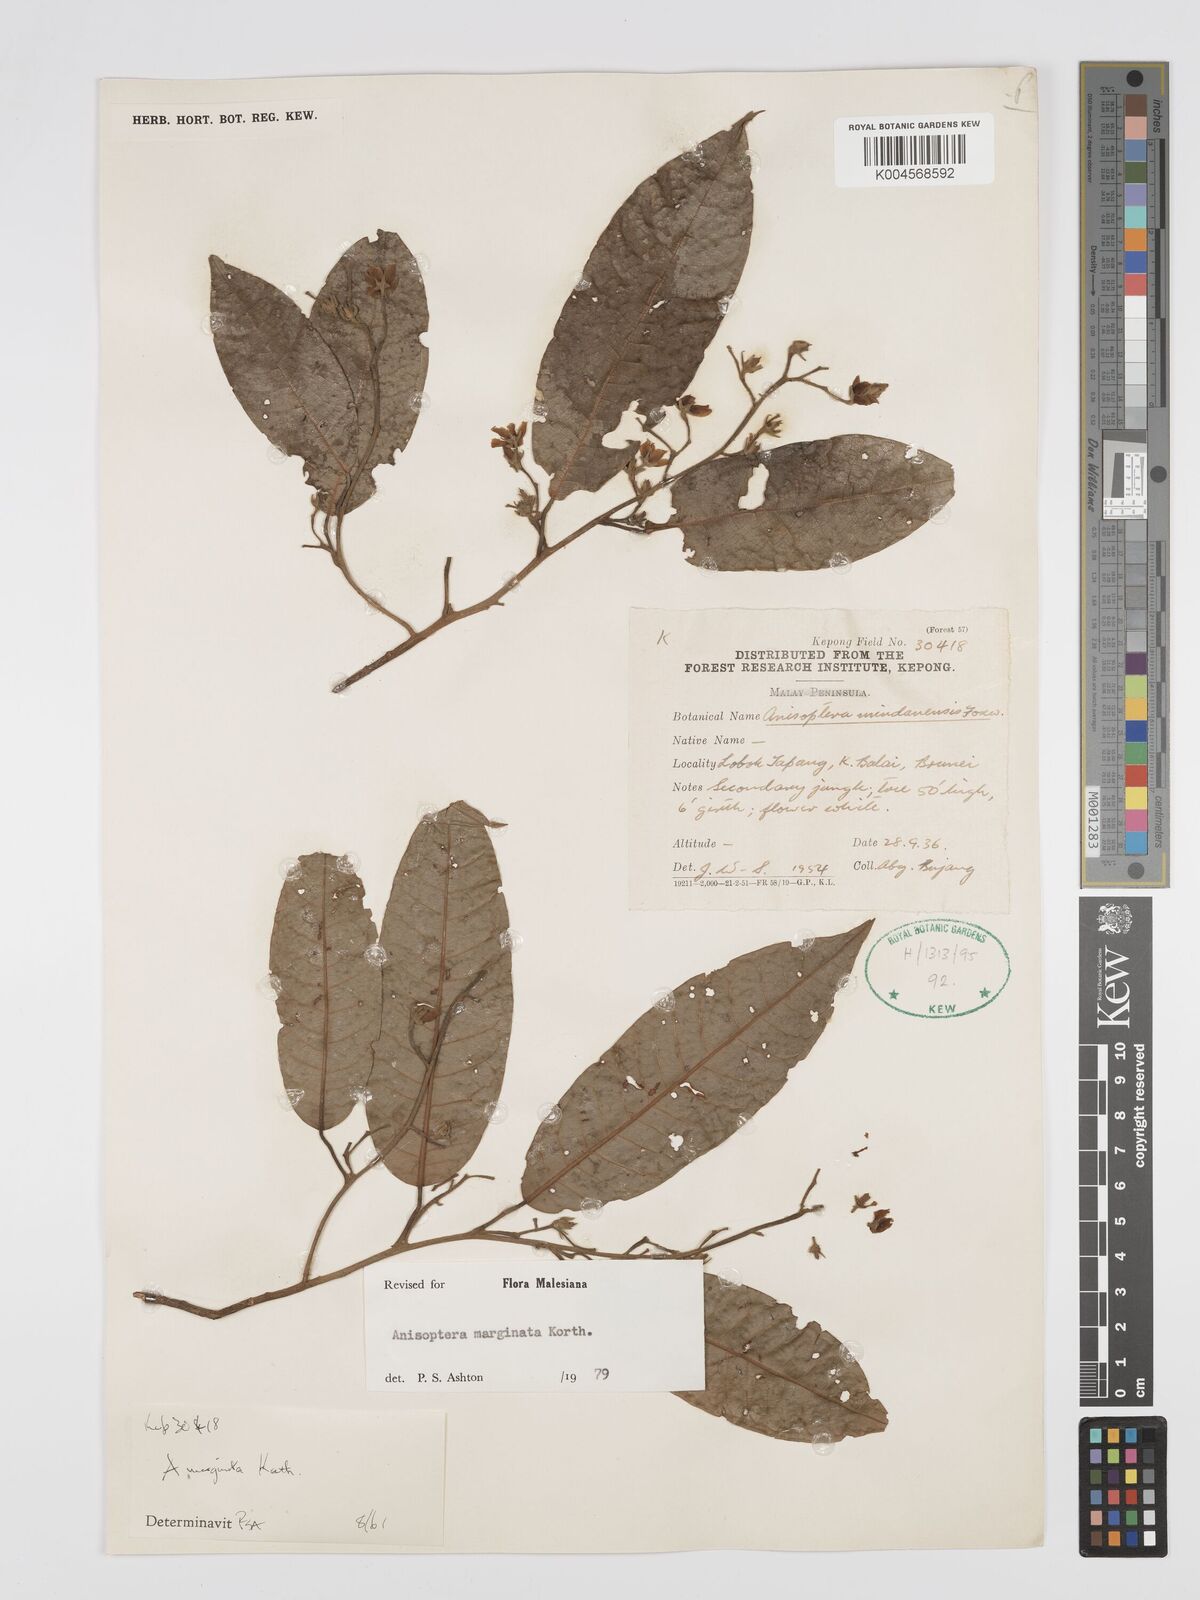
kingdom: Plantae
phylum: Tracheophyta
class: Magnoliopsida
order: Malvales
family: Dipterocarpaceae
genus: Anisoptera
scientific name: Anisoptera marginata
